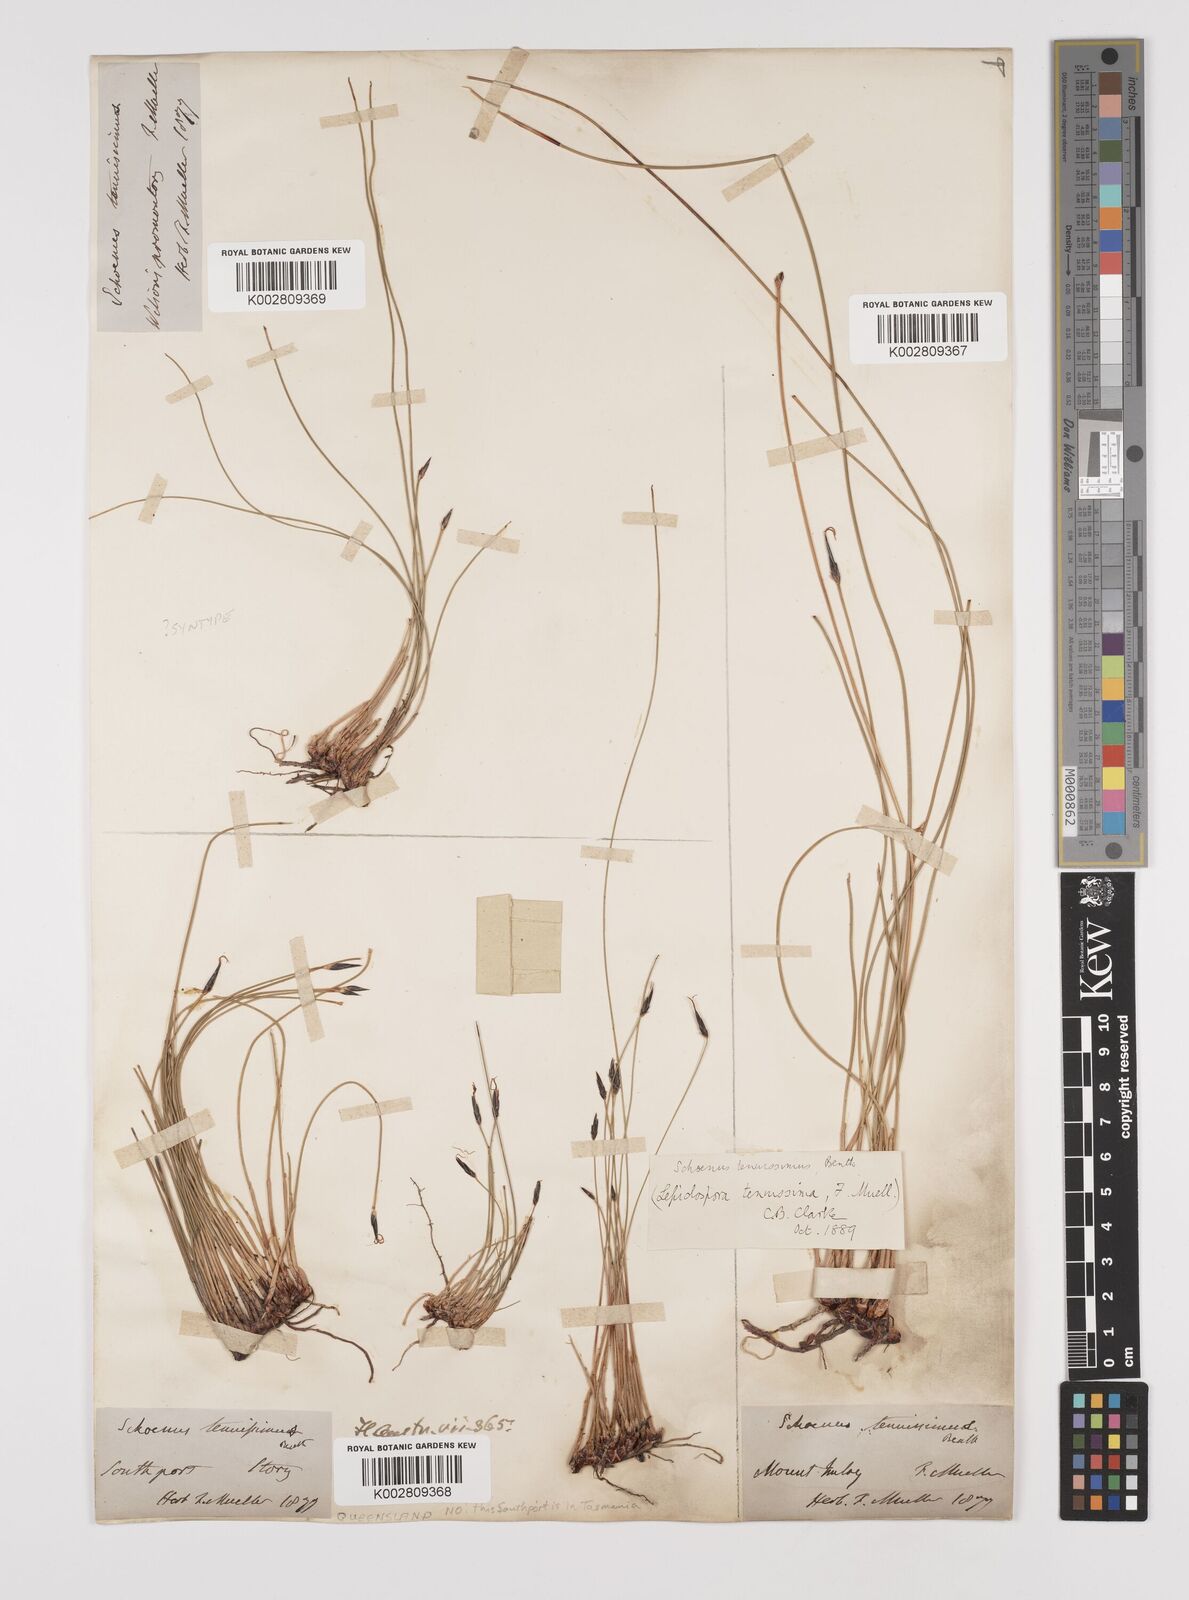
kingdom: Plantae
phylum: Tracheophyta
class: Liliopsida
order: Poales
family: Cyperaceae
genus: Schoenus
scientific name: Schoenus tenuissimus
